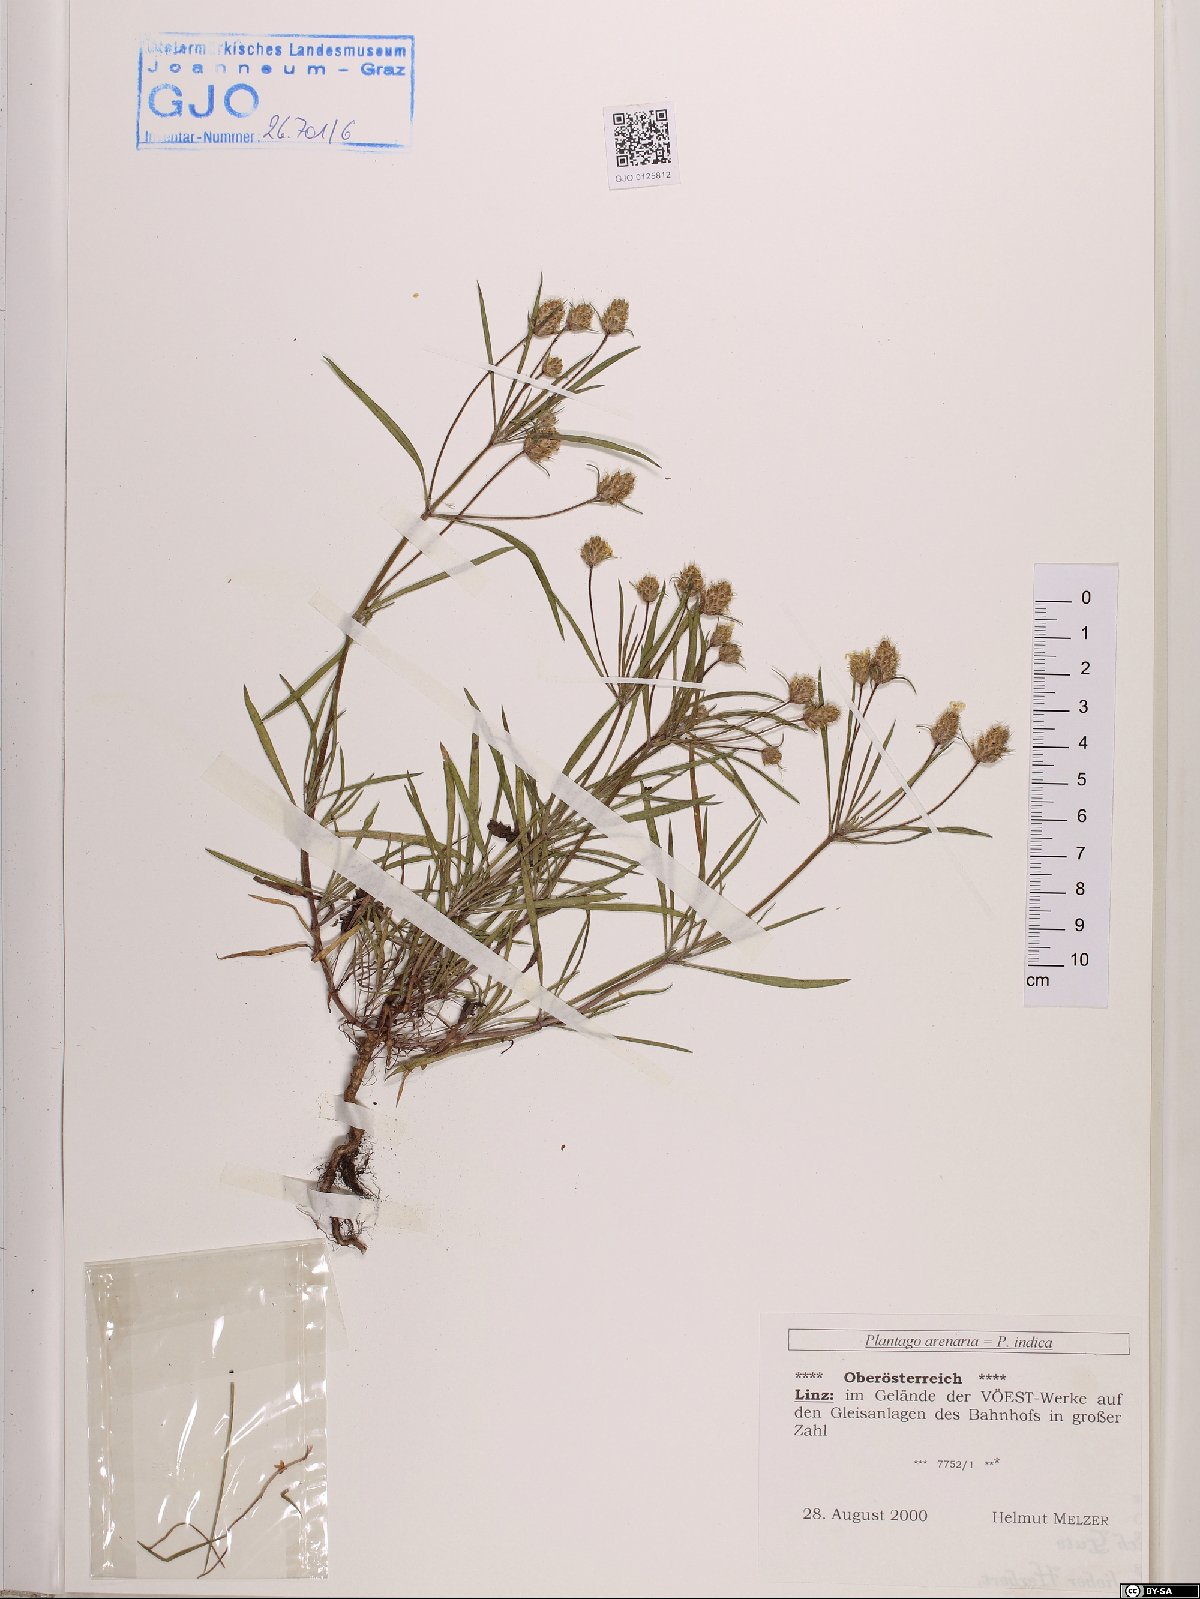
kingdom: Plantae
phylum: Tracheophyta
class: Magnoliopsida
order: Lamiales
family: Plantaginaceae
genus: Plantago
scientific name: Plantago arenaria
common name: Branched plantain
